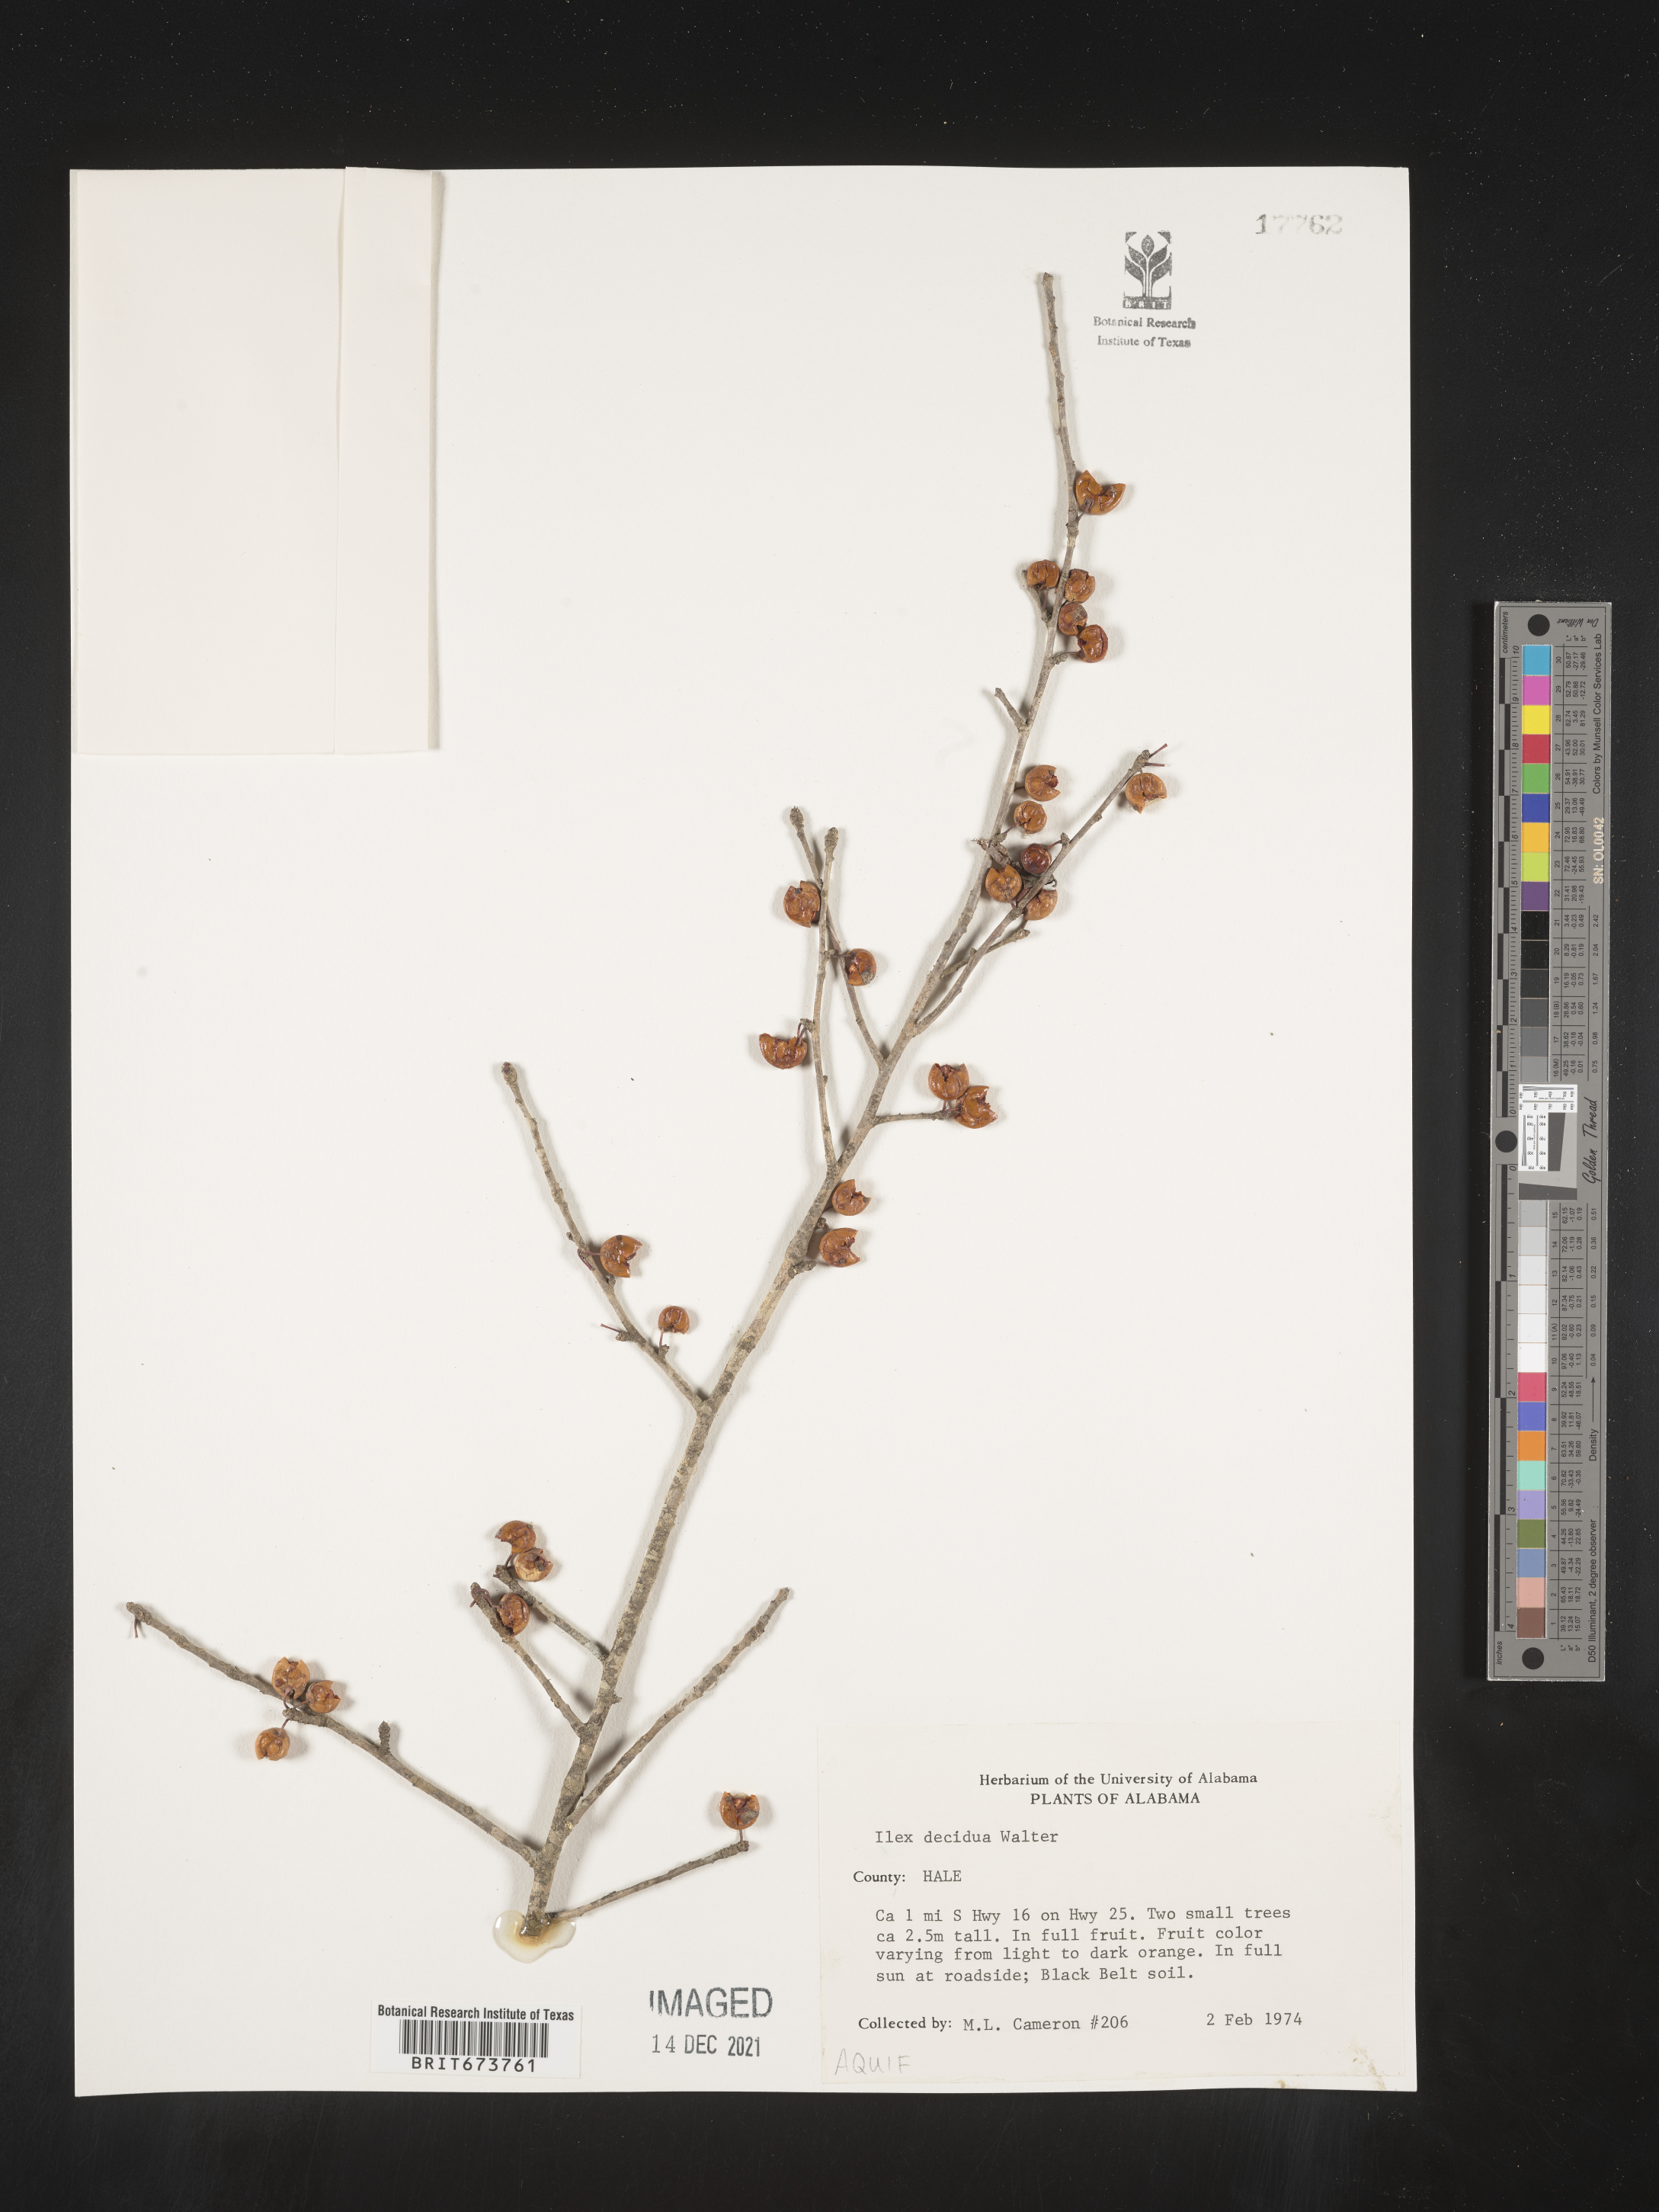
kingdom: Plantae
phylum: Tracheophyta
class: Magnoliopsida
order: Aquifoliales
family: Aquifoliaceae
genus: Ilex
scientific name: Ilex decidua
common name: Possum-haw
